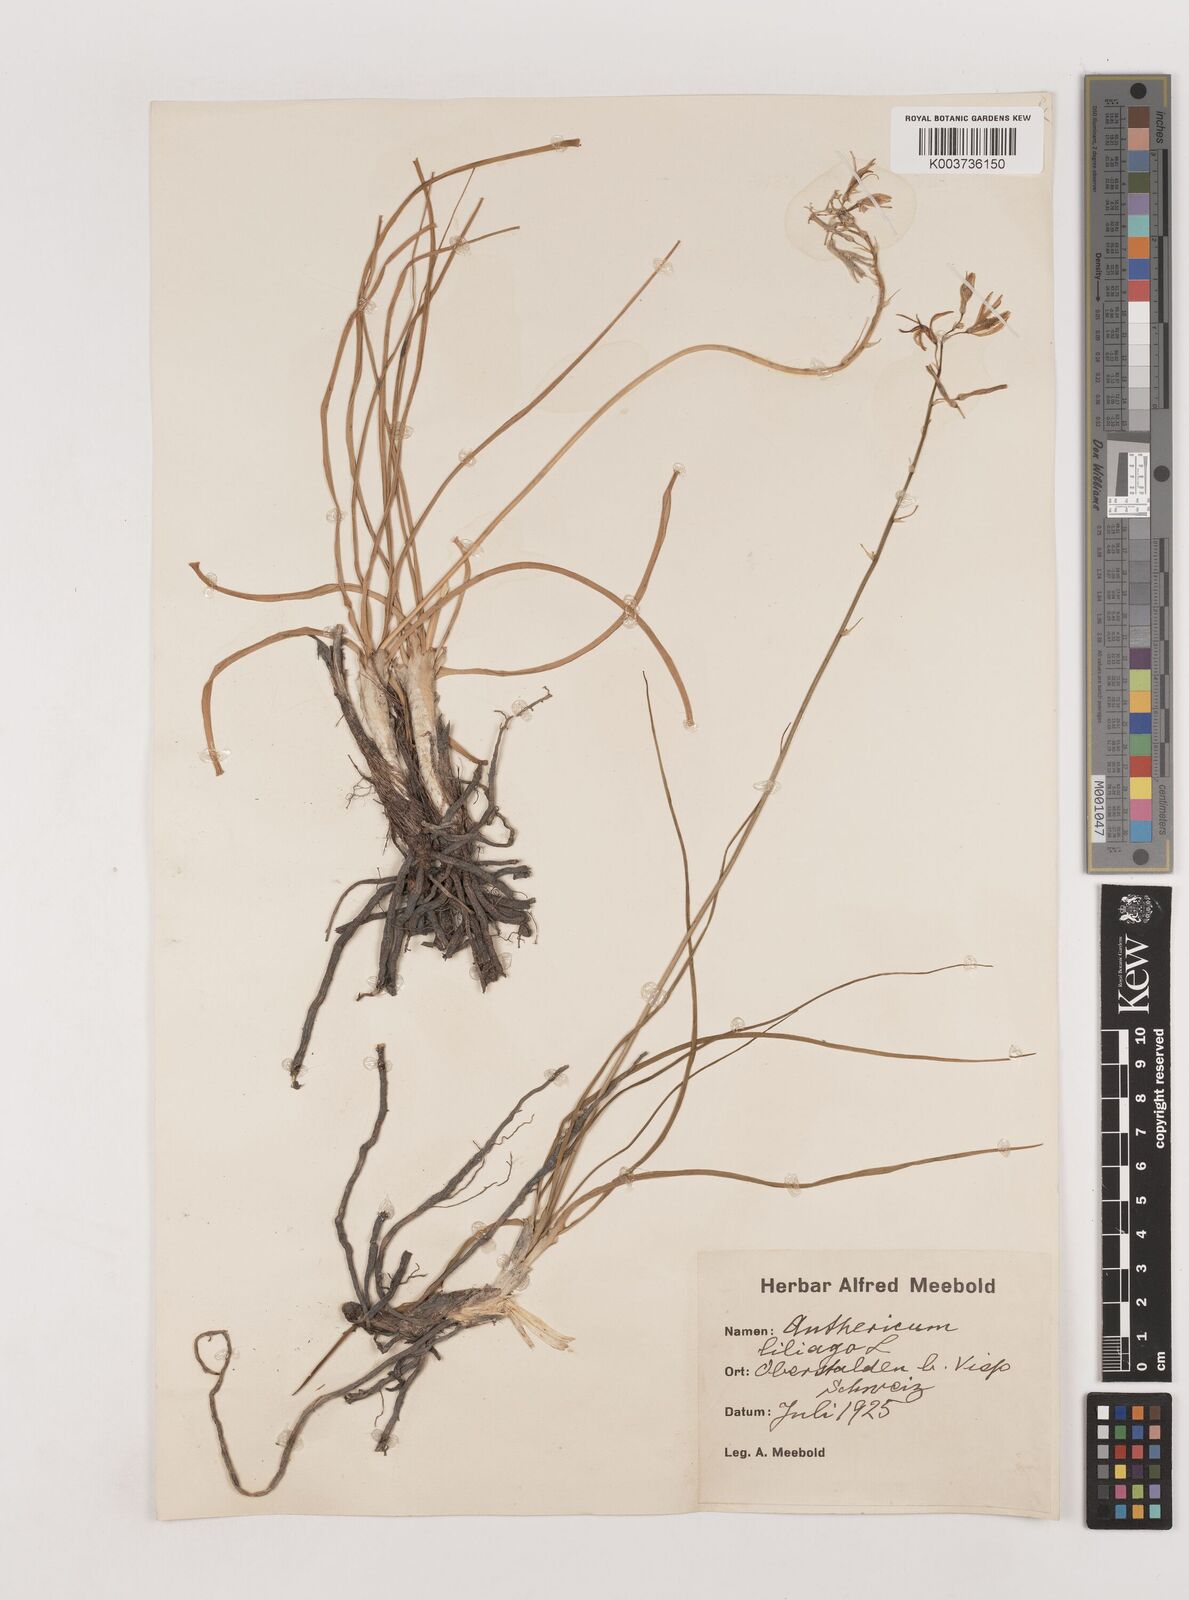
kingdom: Plantae
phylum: Tracheophyta
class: Liliopsida
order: Asparagales
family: Asparagaceae
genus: Anthericum
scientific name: Anthericum liliago
